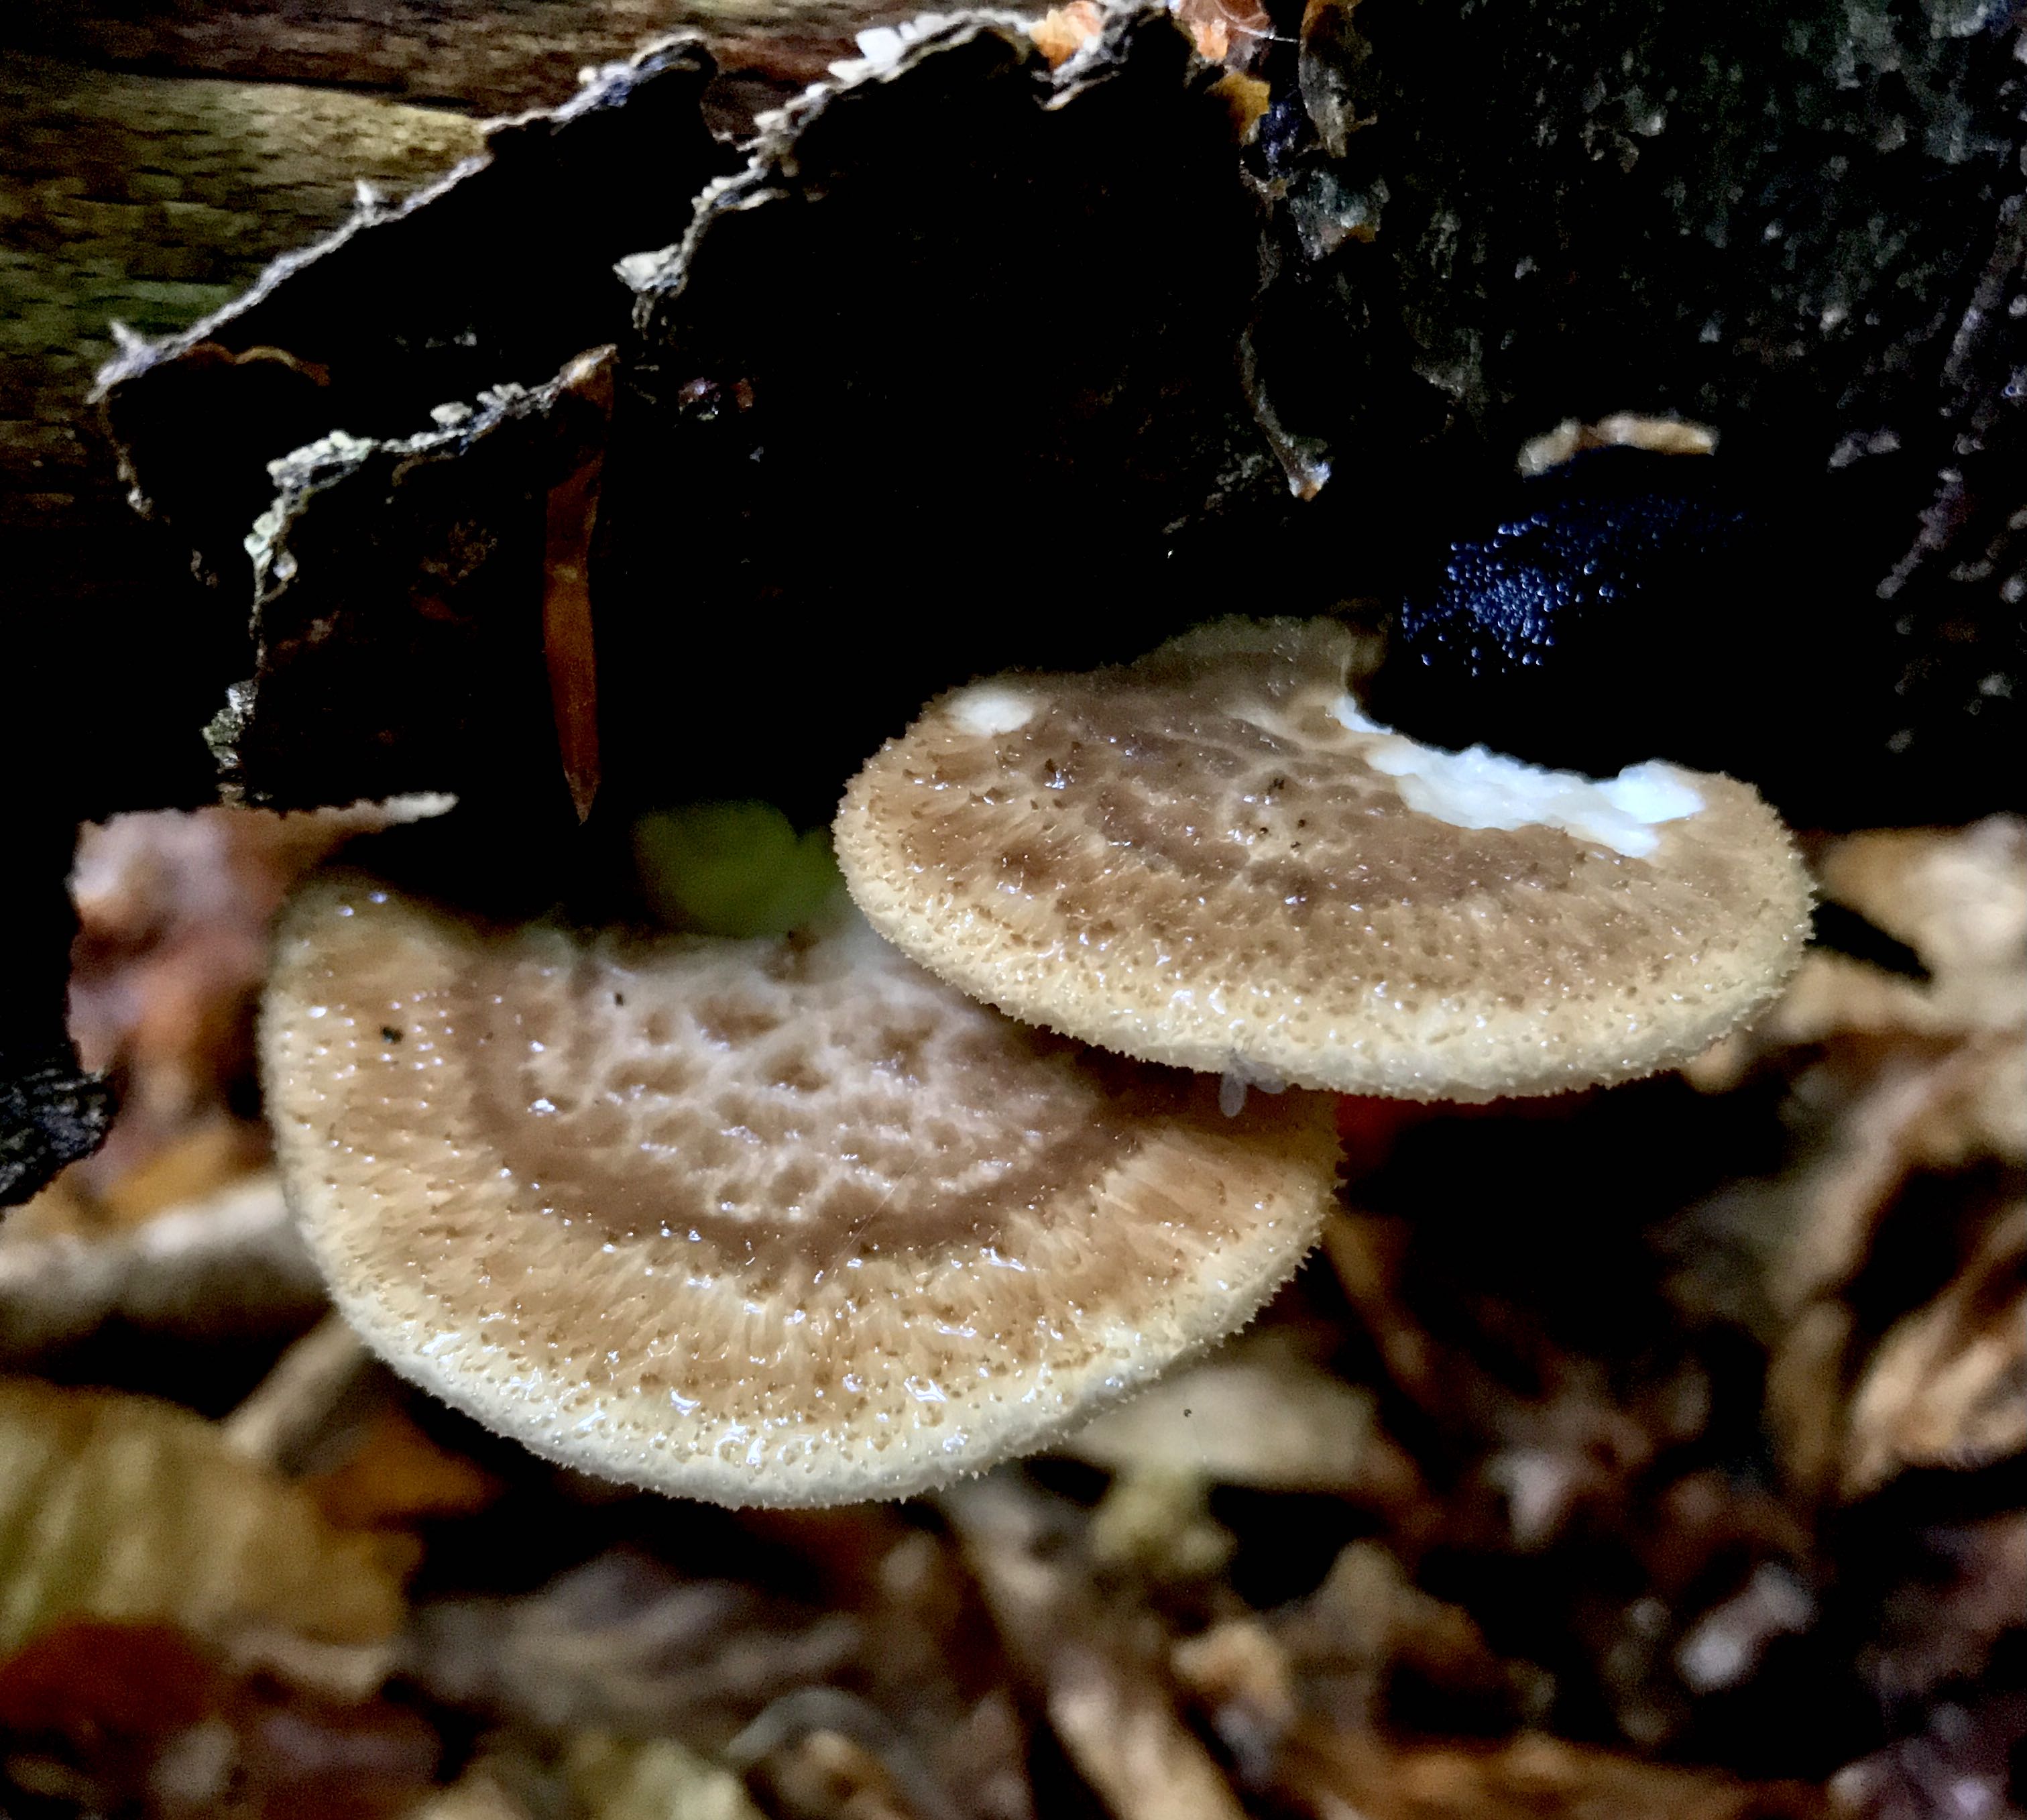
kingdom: Fungi
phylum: Basidiomycota
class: Agaricomycetes
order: Polyporales
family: Polyporaceae
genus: Polyporus
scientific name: Polyporus tuberaster
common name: knoldet stilkporesvamp
